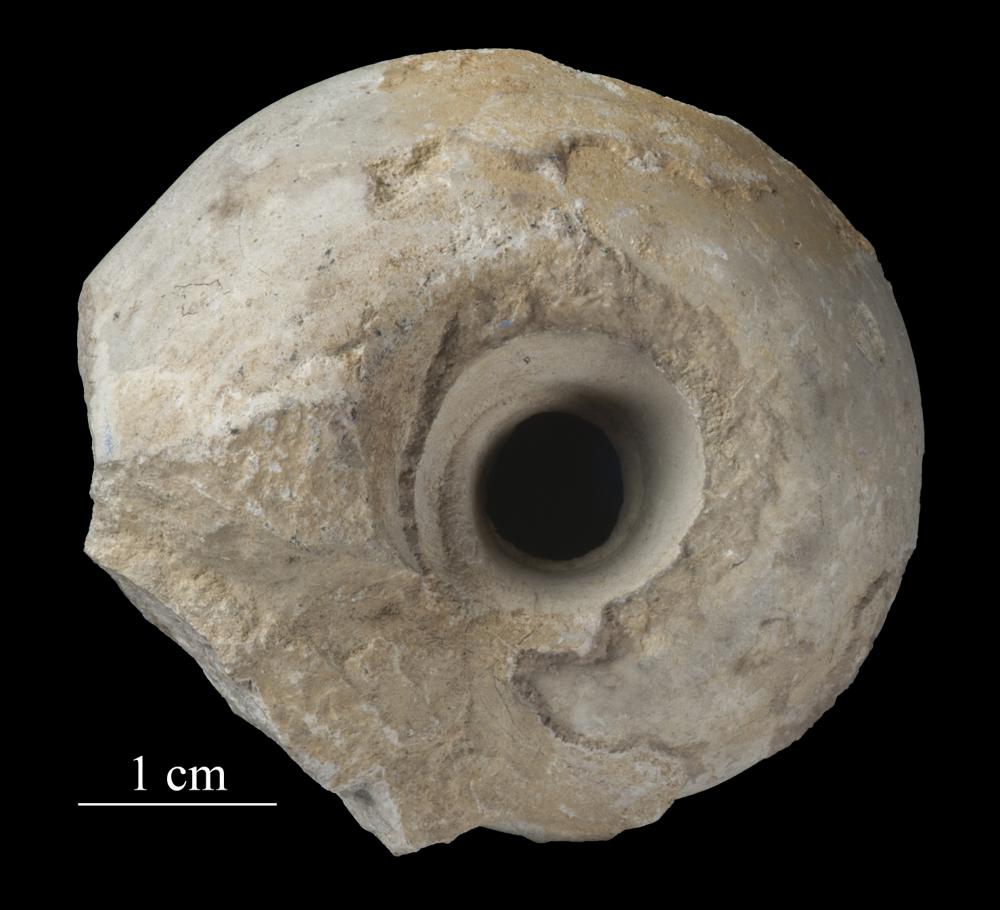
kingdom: Animalia
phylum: Mollusca
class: Gastropoda
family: Lesueurillidae
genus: Pararaphistoma
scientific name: Pararaphistoma Helicites qualteriata
